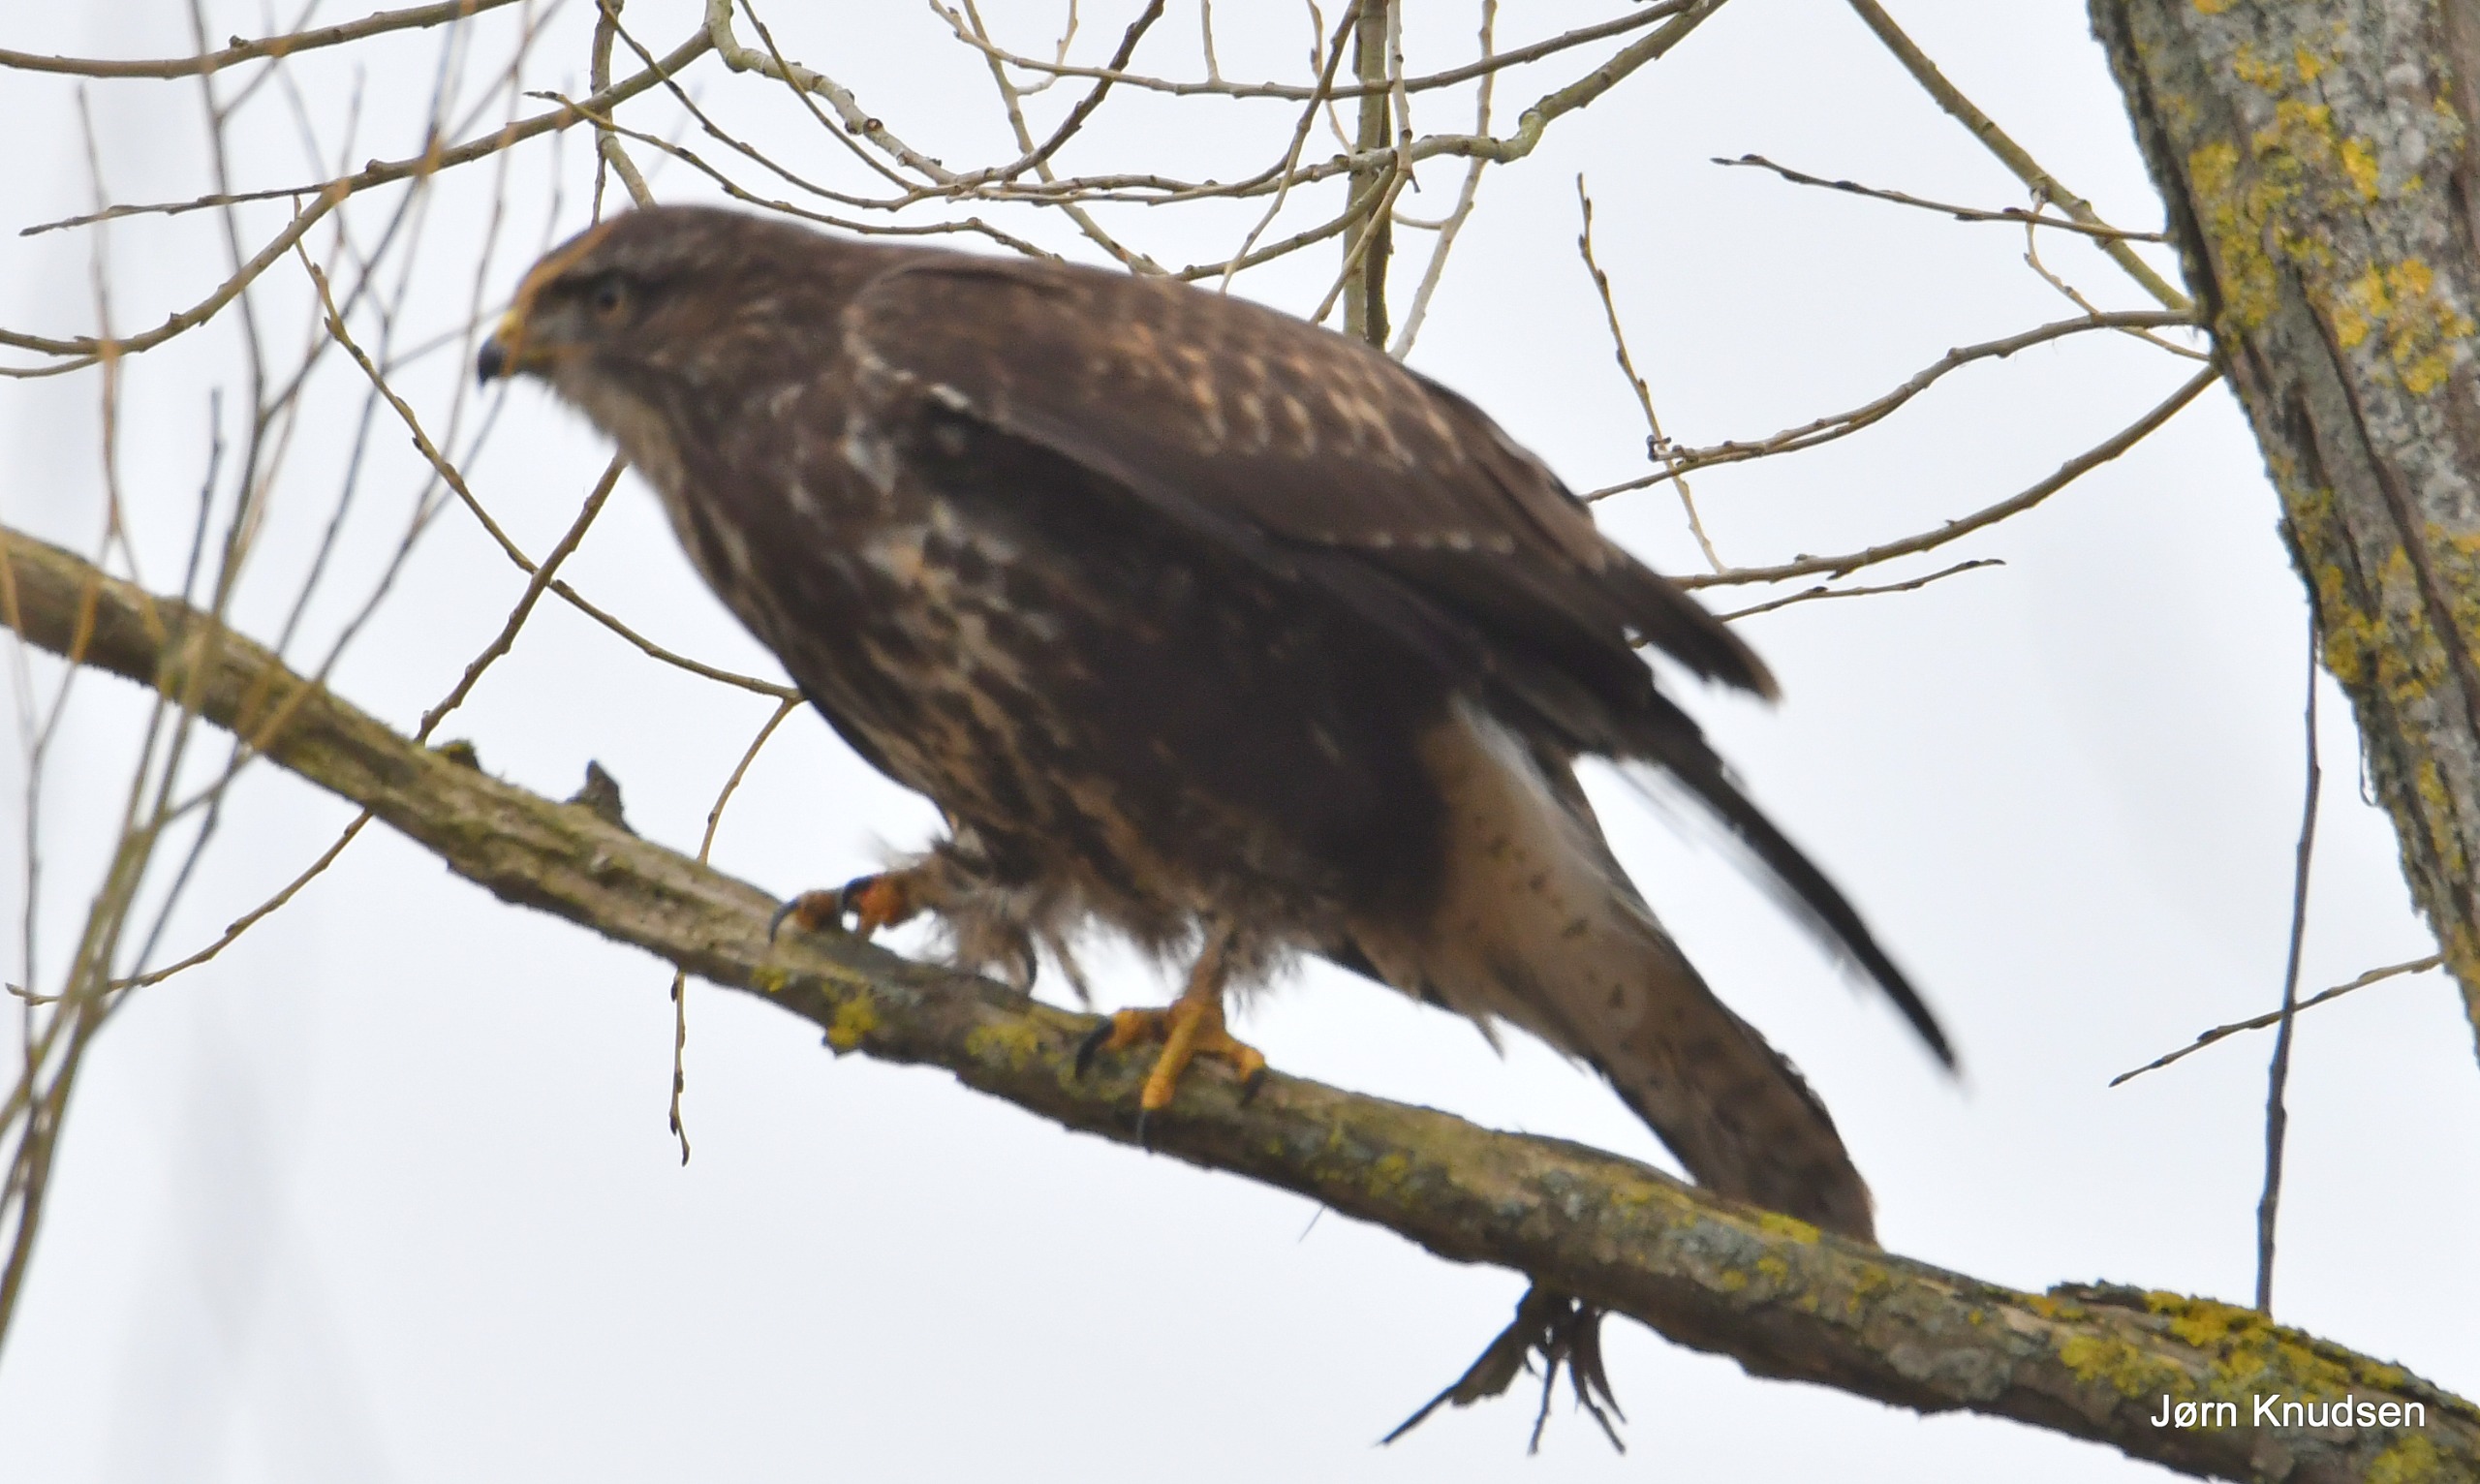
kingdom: Animalia
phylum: Chordata
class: Aves
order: Accipitriformes
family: Accipitridae
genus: Buteo
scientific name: Buteo buteo
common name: Musvåge
